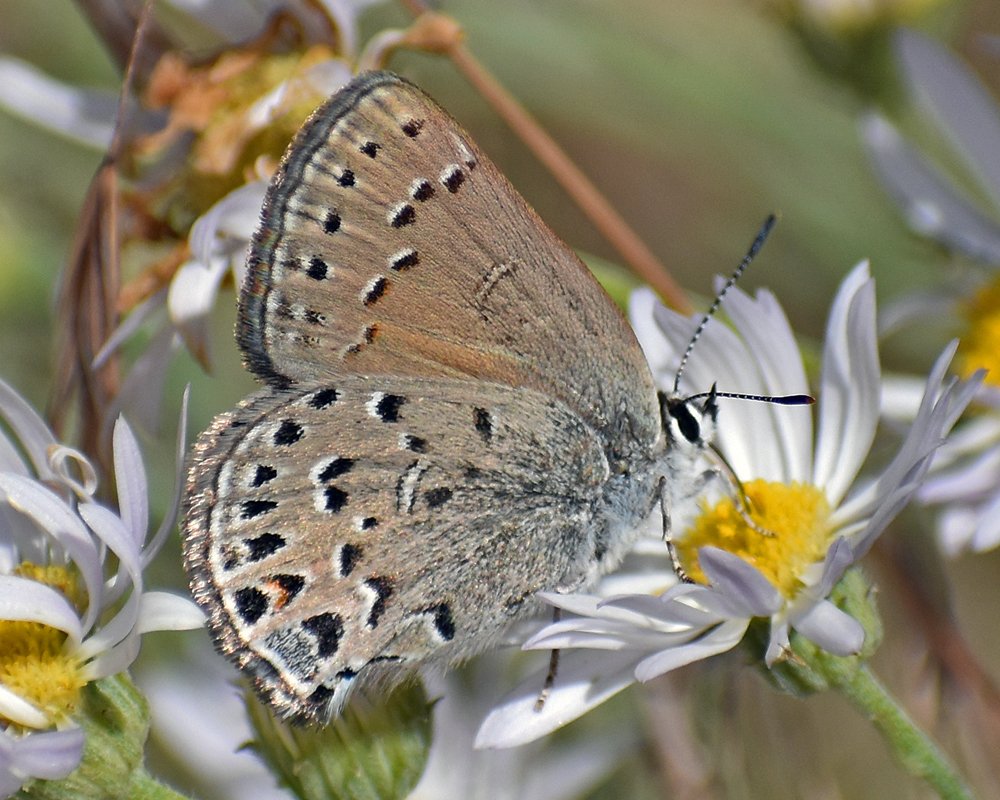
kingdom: Animalia
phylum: Arthropoda
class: Insecta
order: Lepidoptera
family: Lycaenidae
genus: Satyrium
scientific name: Satyrium behrii
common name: Behr's Hairstreak
